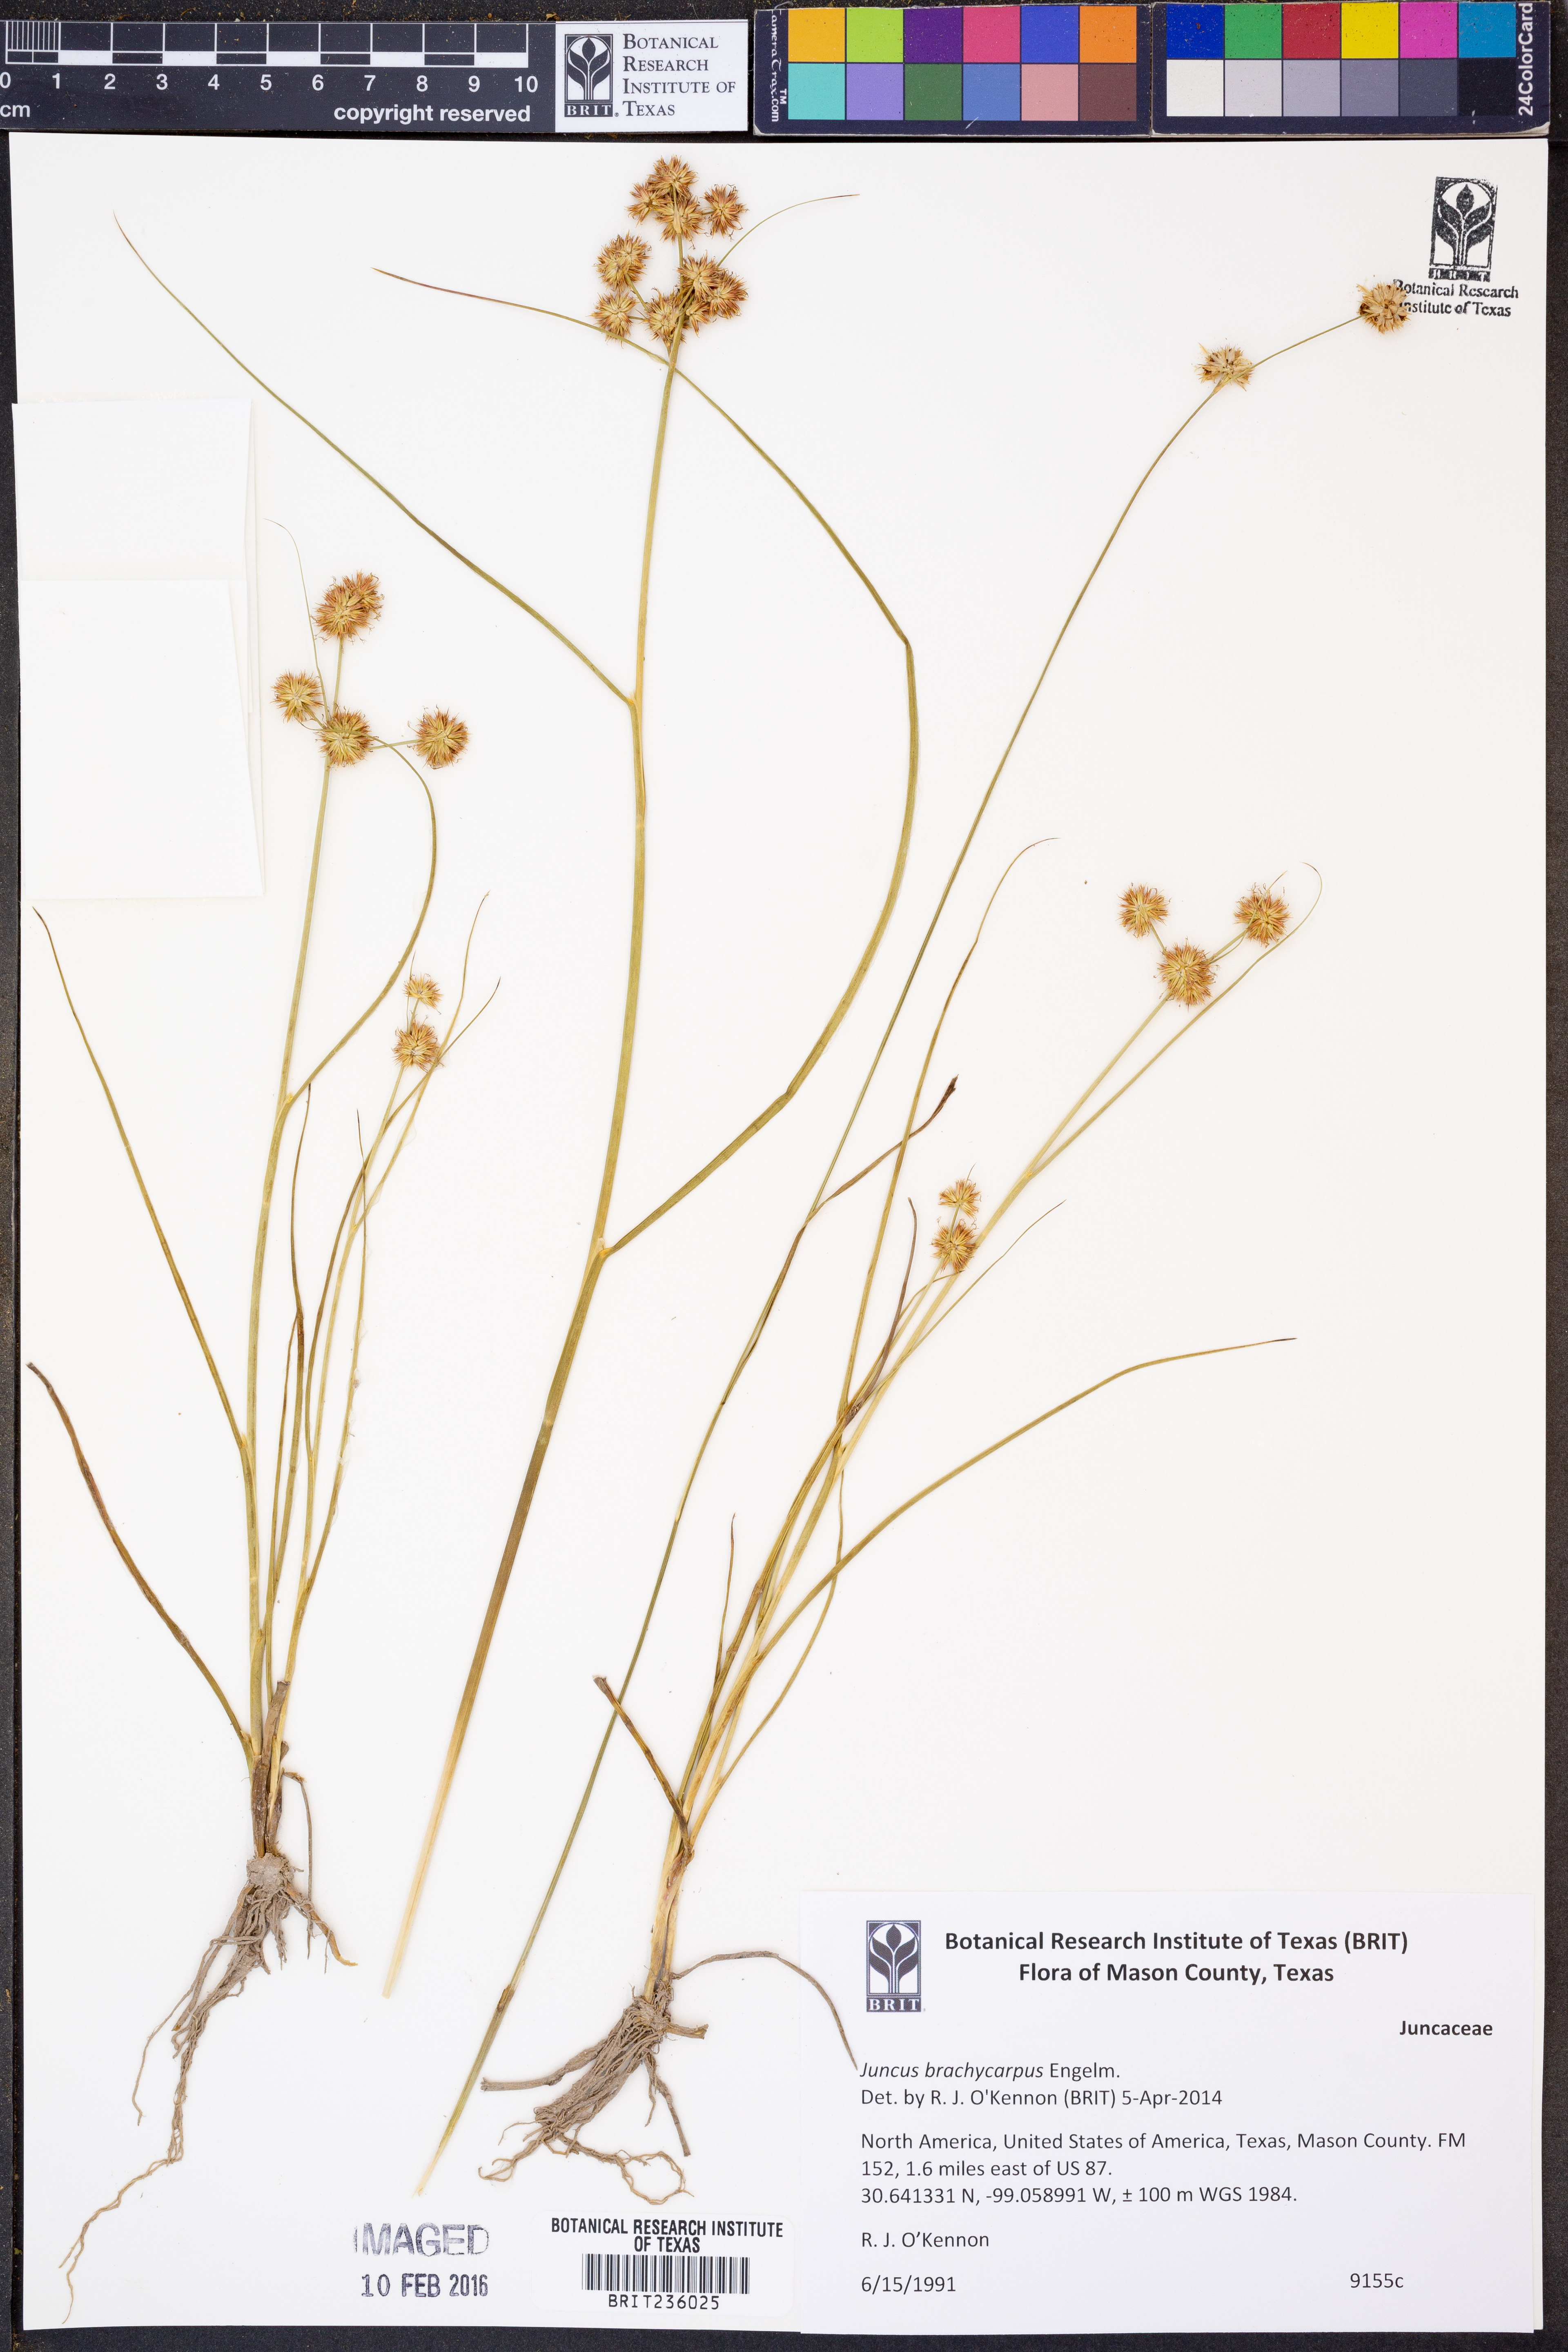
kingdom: Plantae
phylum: Tracheophyta
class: Liliopsida
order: Poales
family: Juncaceae
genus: Juncus
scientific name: Juncus brachycarpus
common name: Shore rush
